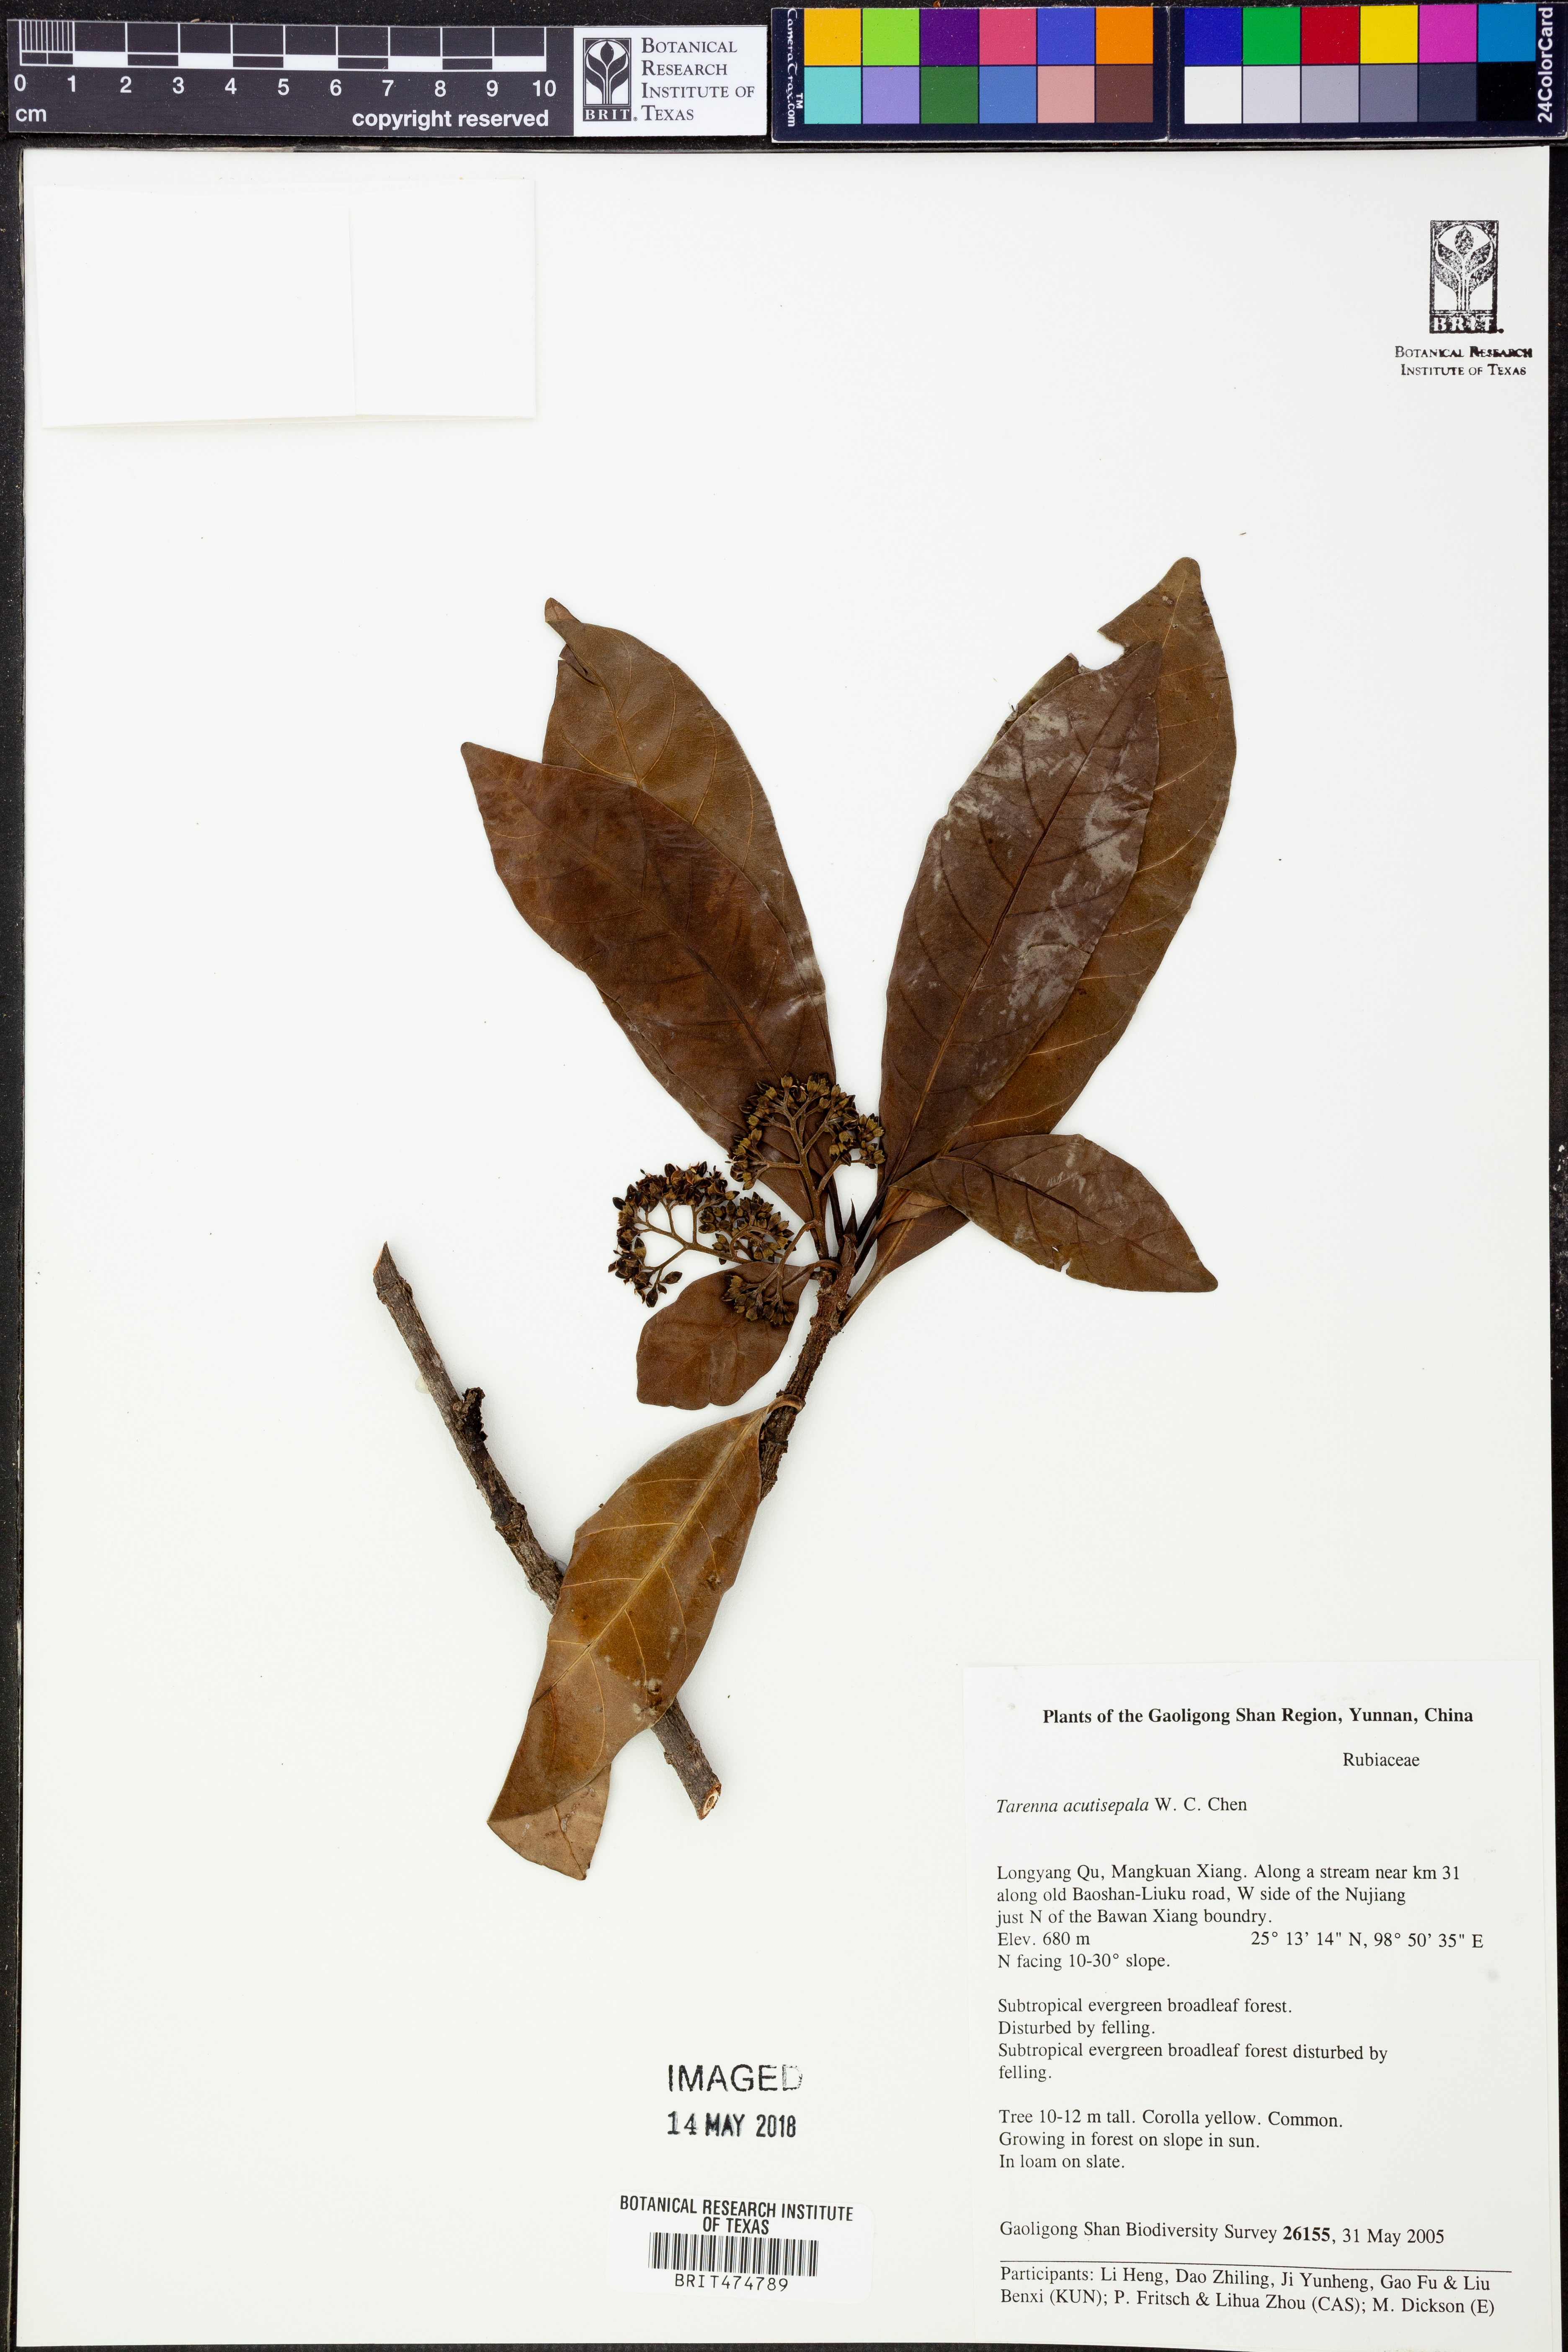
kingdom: Plantae
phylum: Tracheophyta
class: Magnoliopsida
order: Gentianales
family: Rubiaceae
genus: Tarenna
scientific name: Tarenna acutisepala
